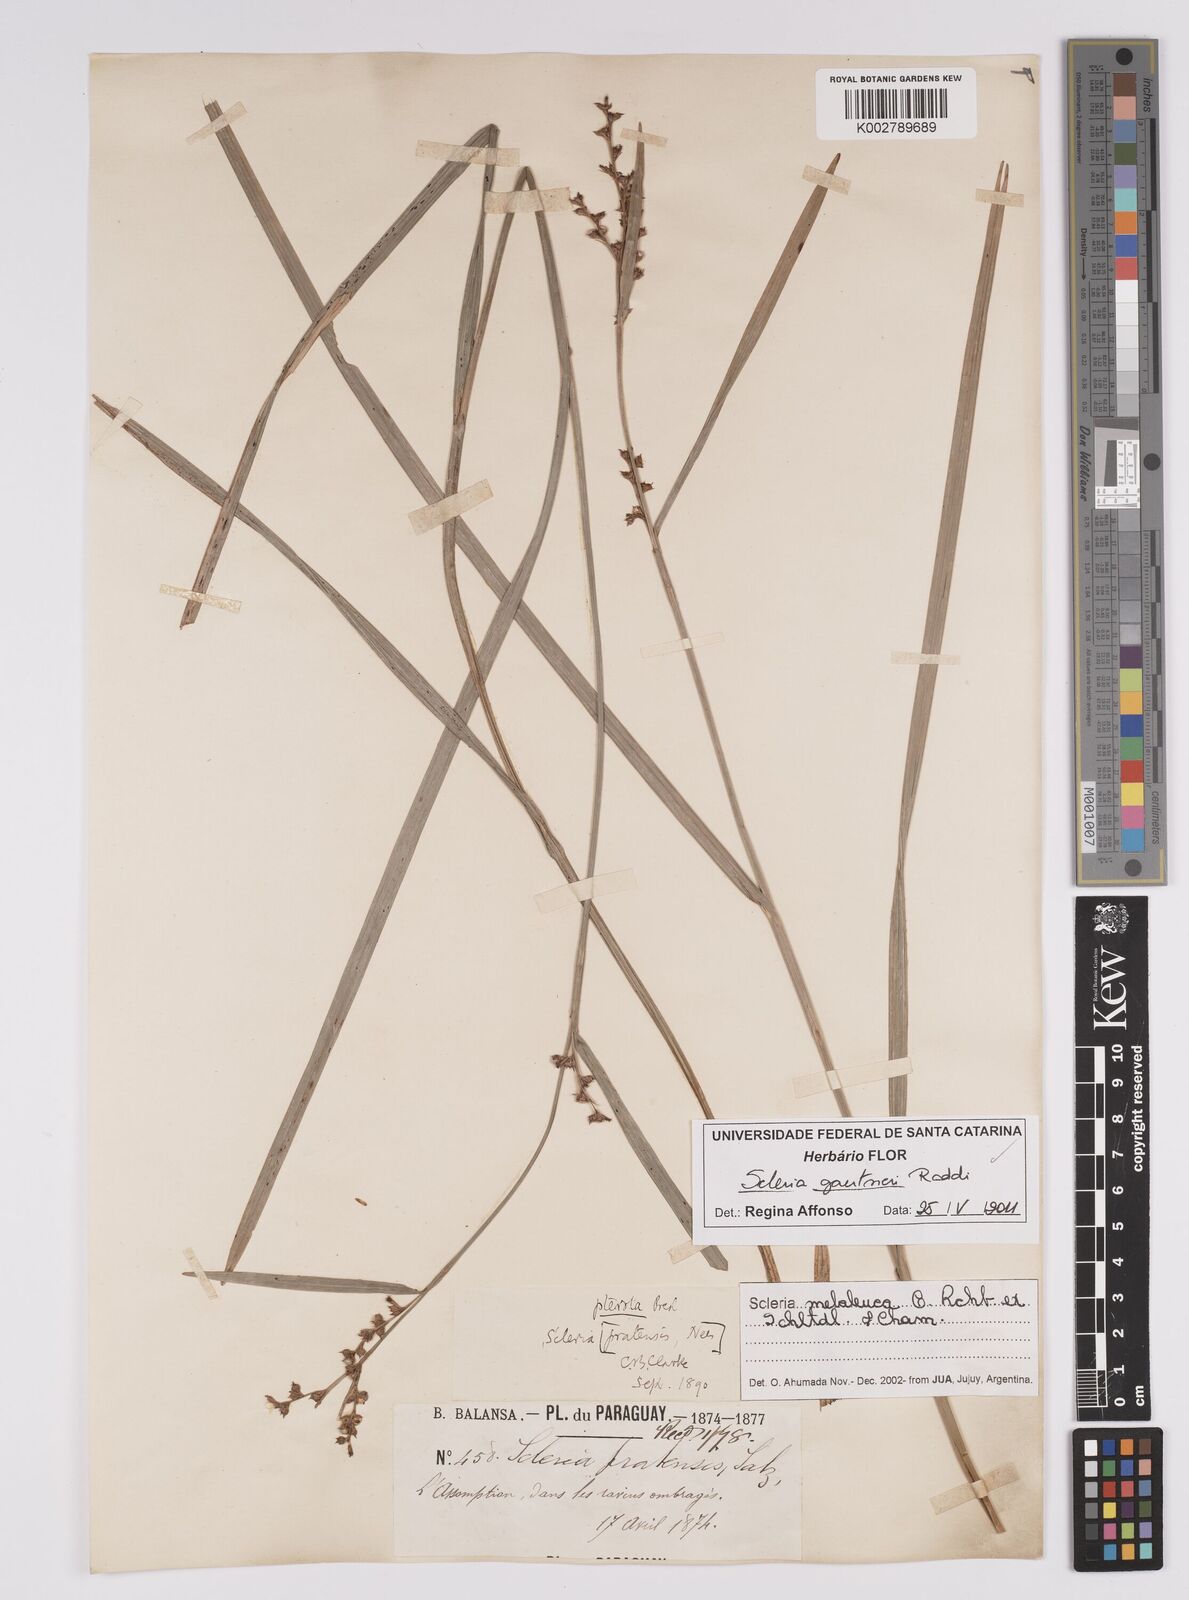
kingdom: Plantae
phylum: Tracheophyta
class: Liliopsida
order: Poales
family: Cyperaceae
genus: Scleria
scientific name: Scleria gaertneri
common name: Cortadera blanca
